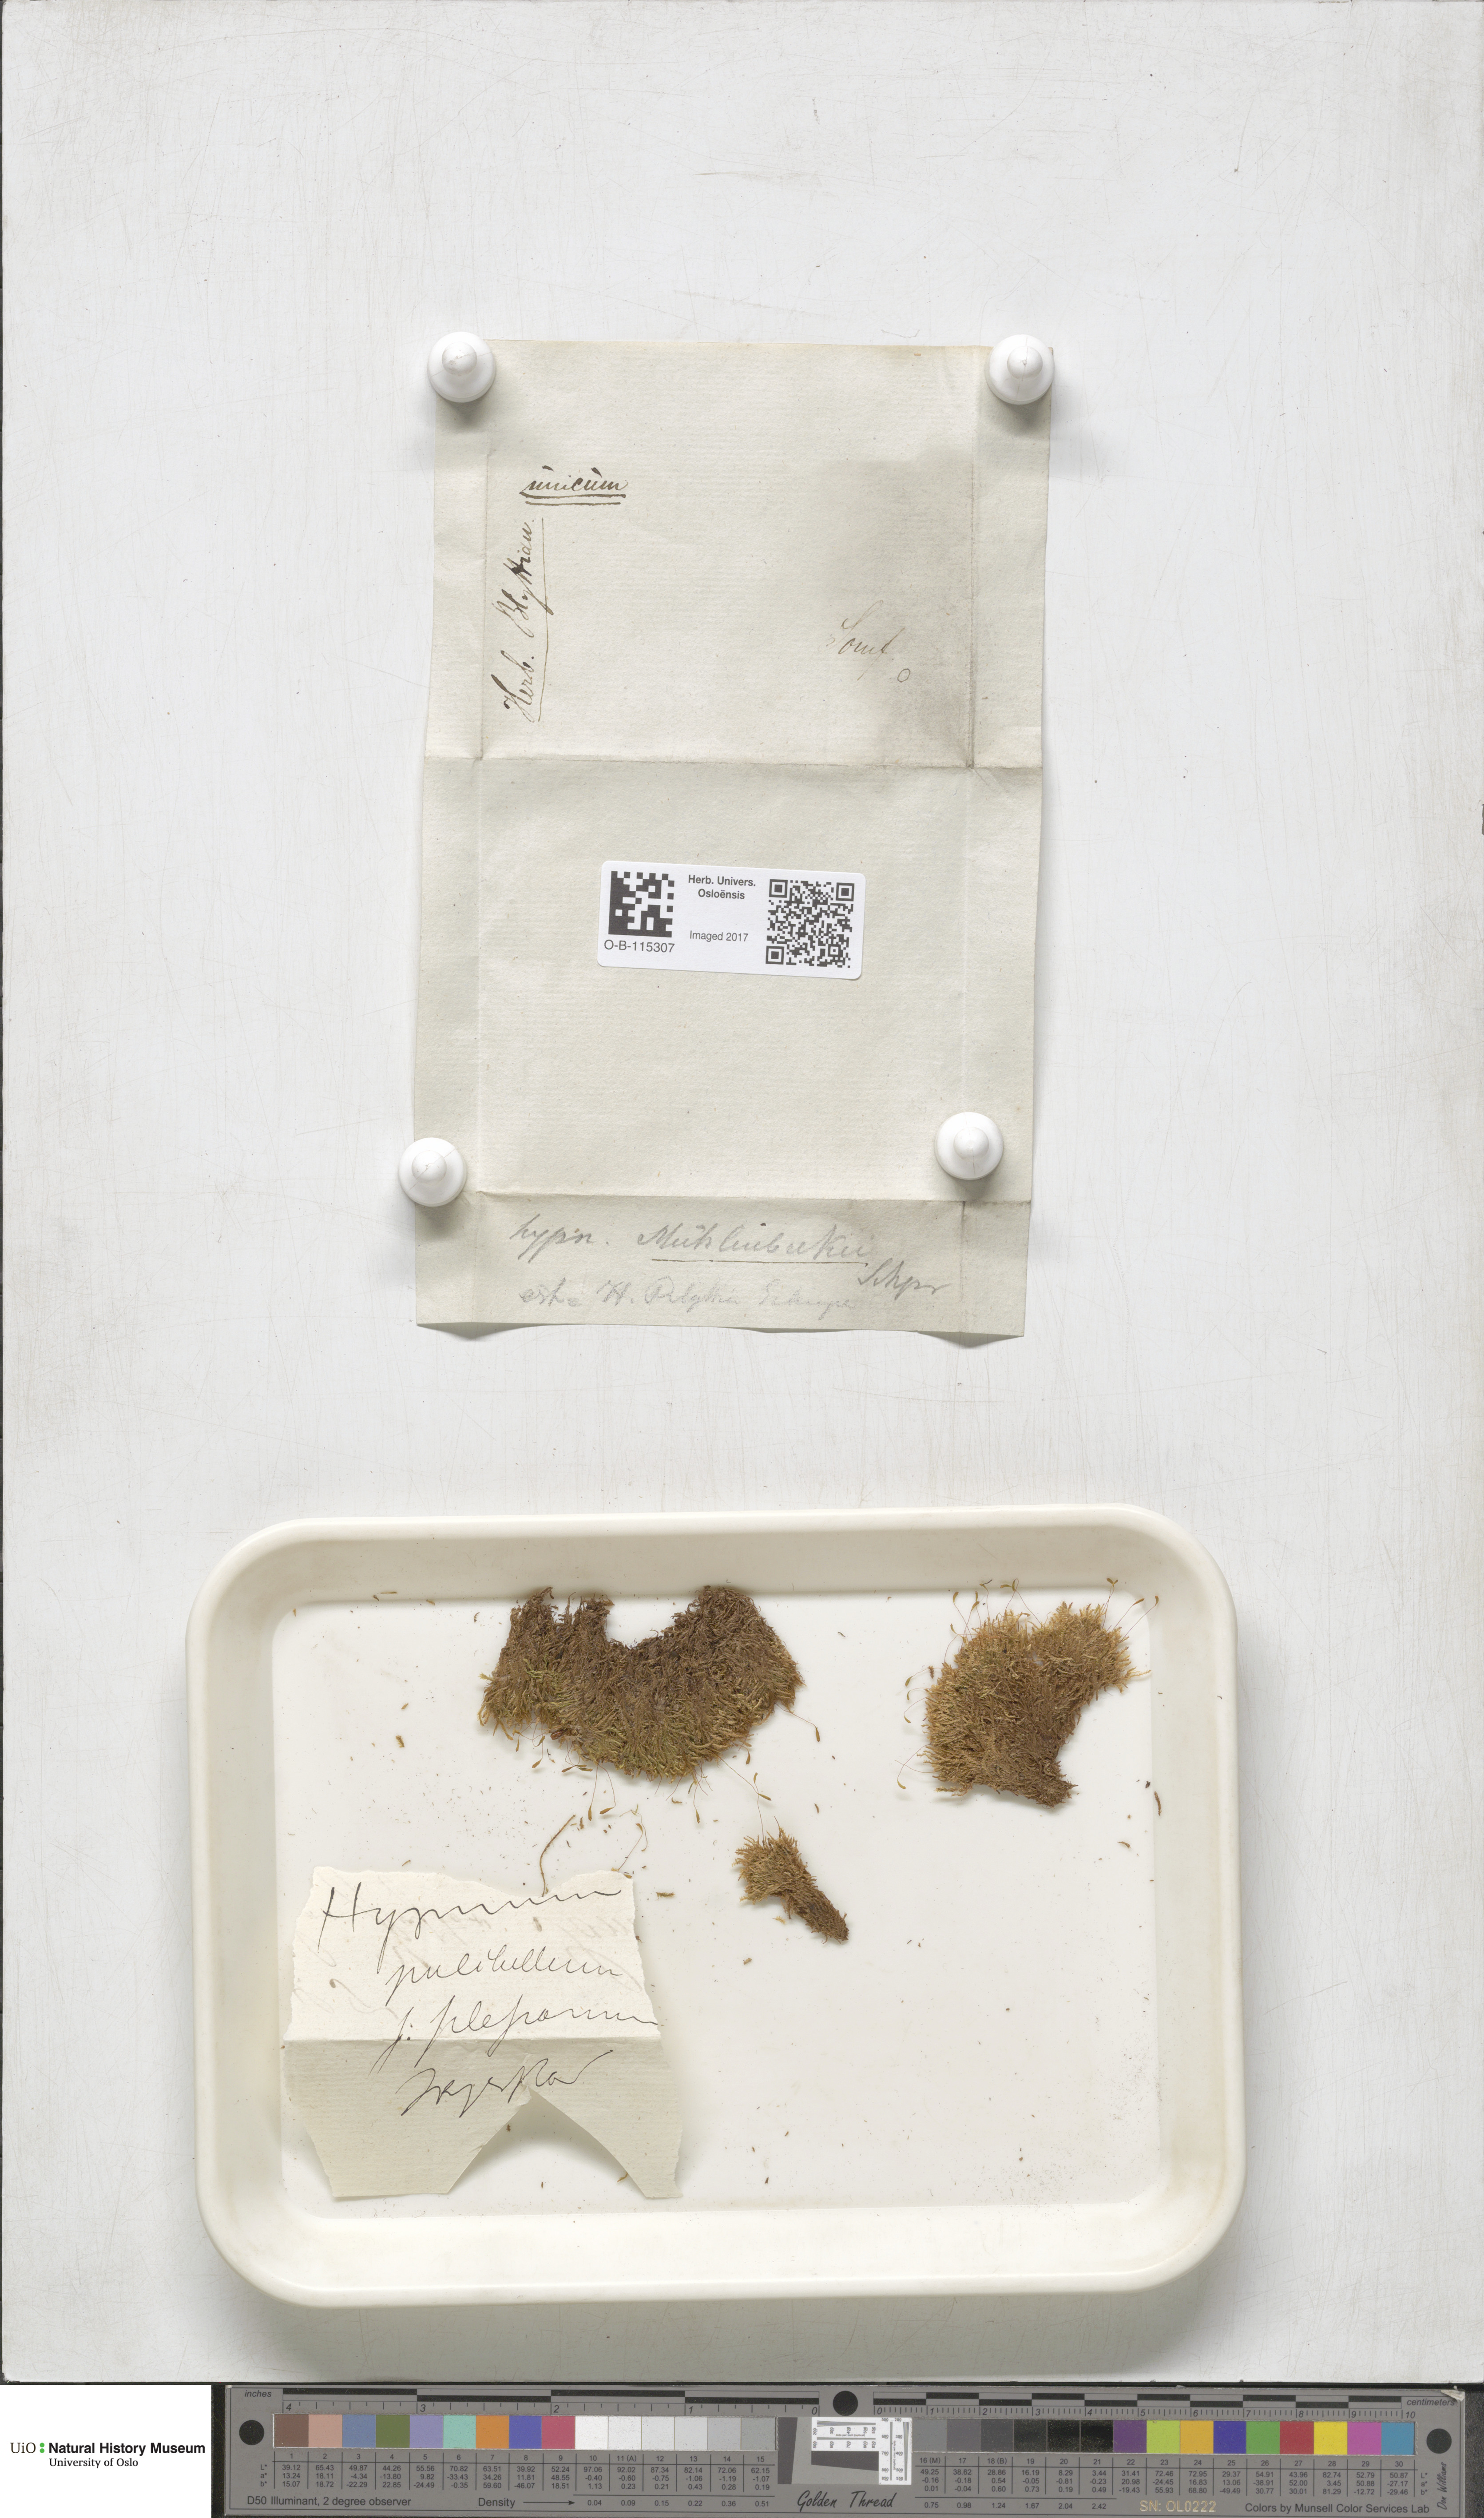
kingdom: Plantae
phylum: Bryophyta
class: Bryopsida
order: Hypnales
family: Plagiotheciaceae
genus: Herzogiella
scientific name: Herzogiella striatella
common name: Muhlenbeck's feather-moss
